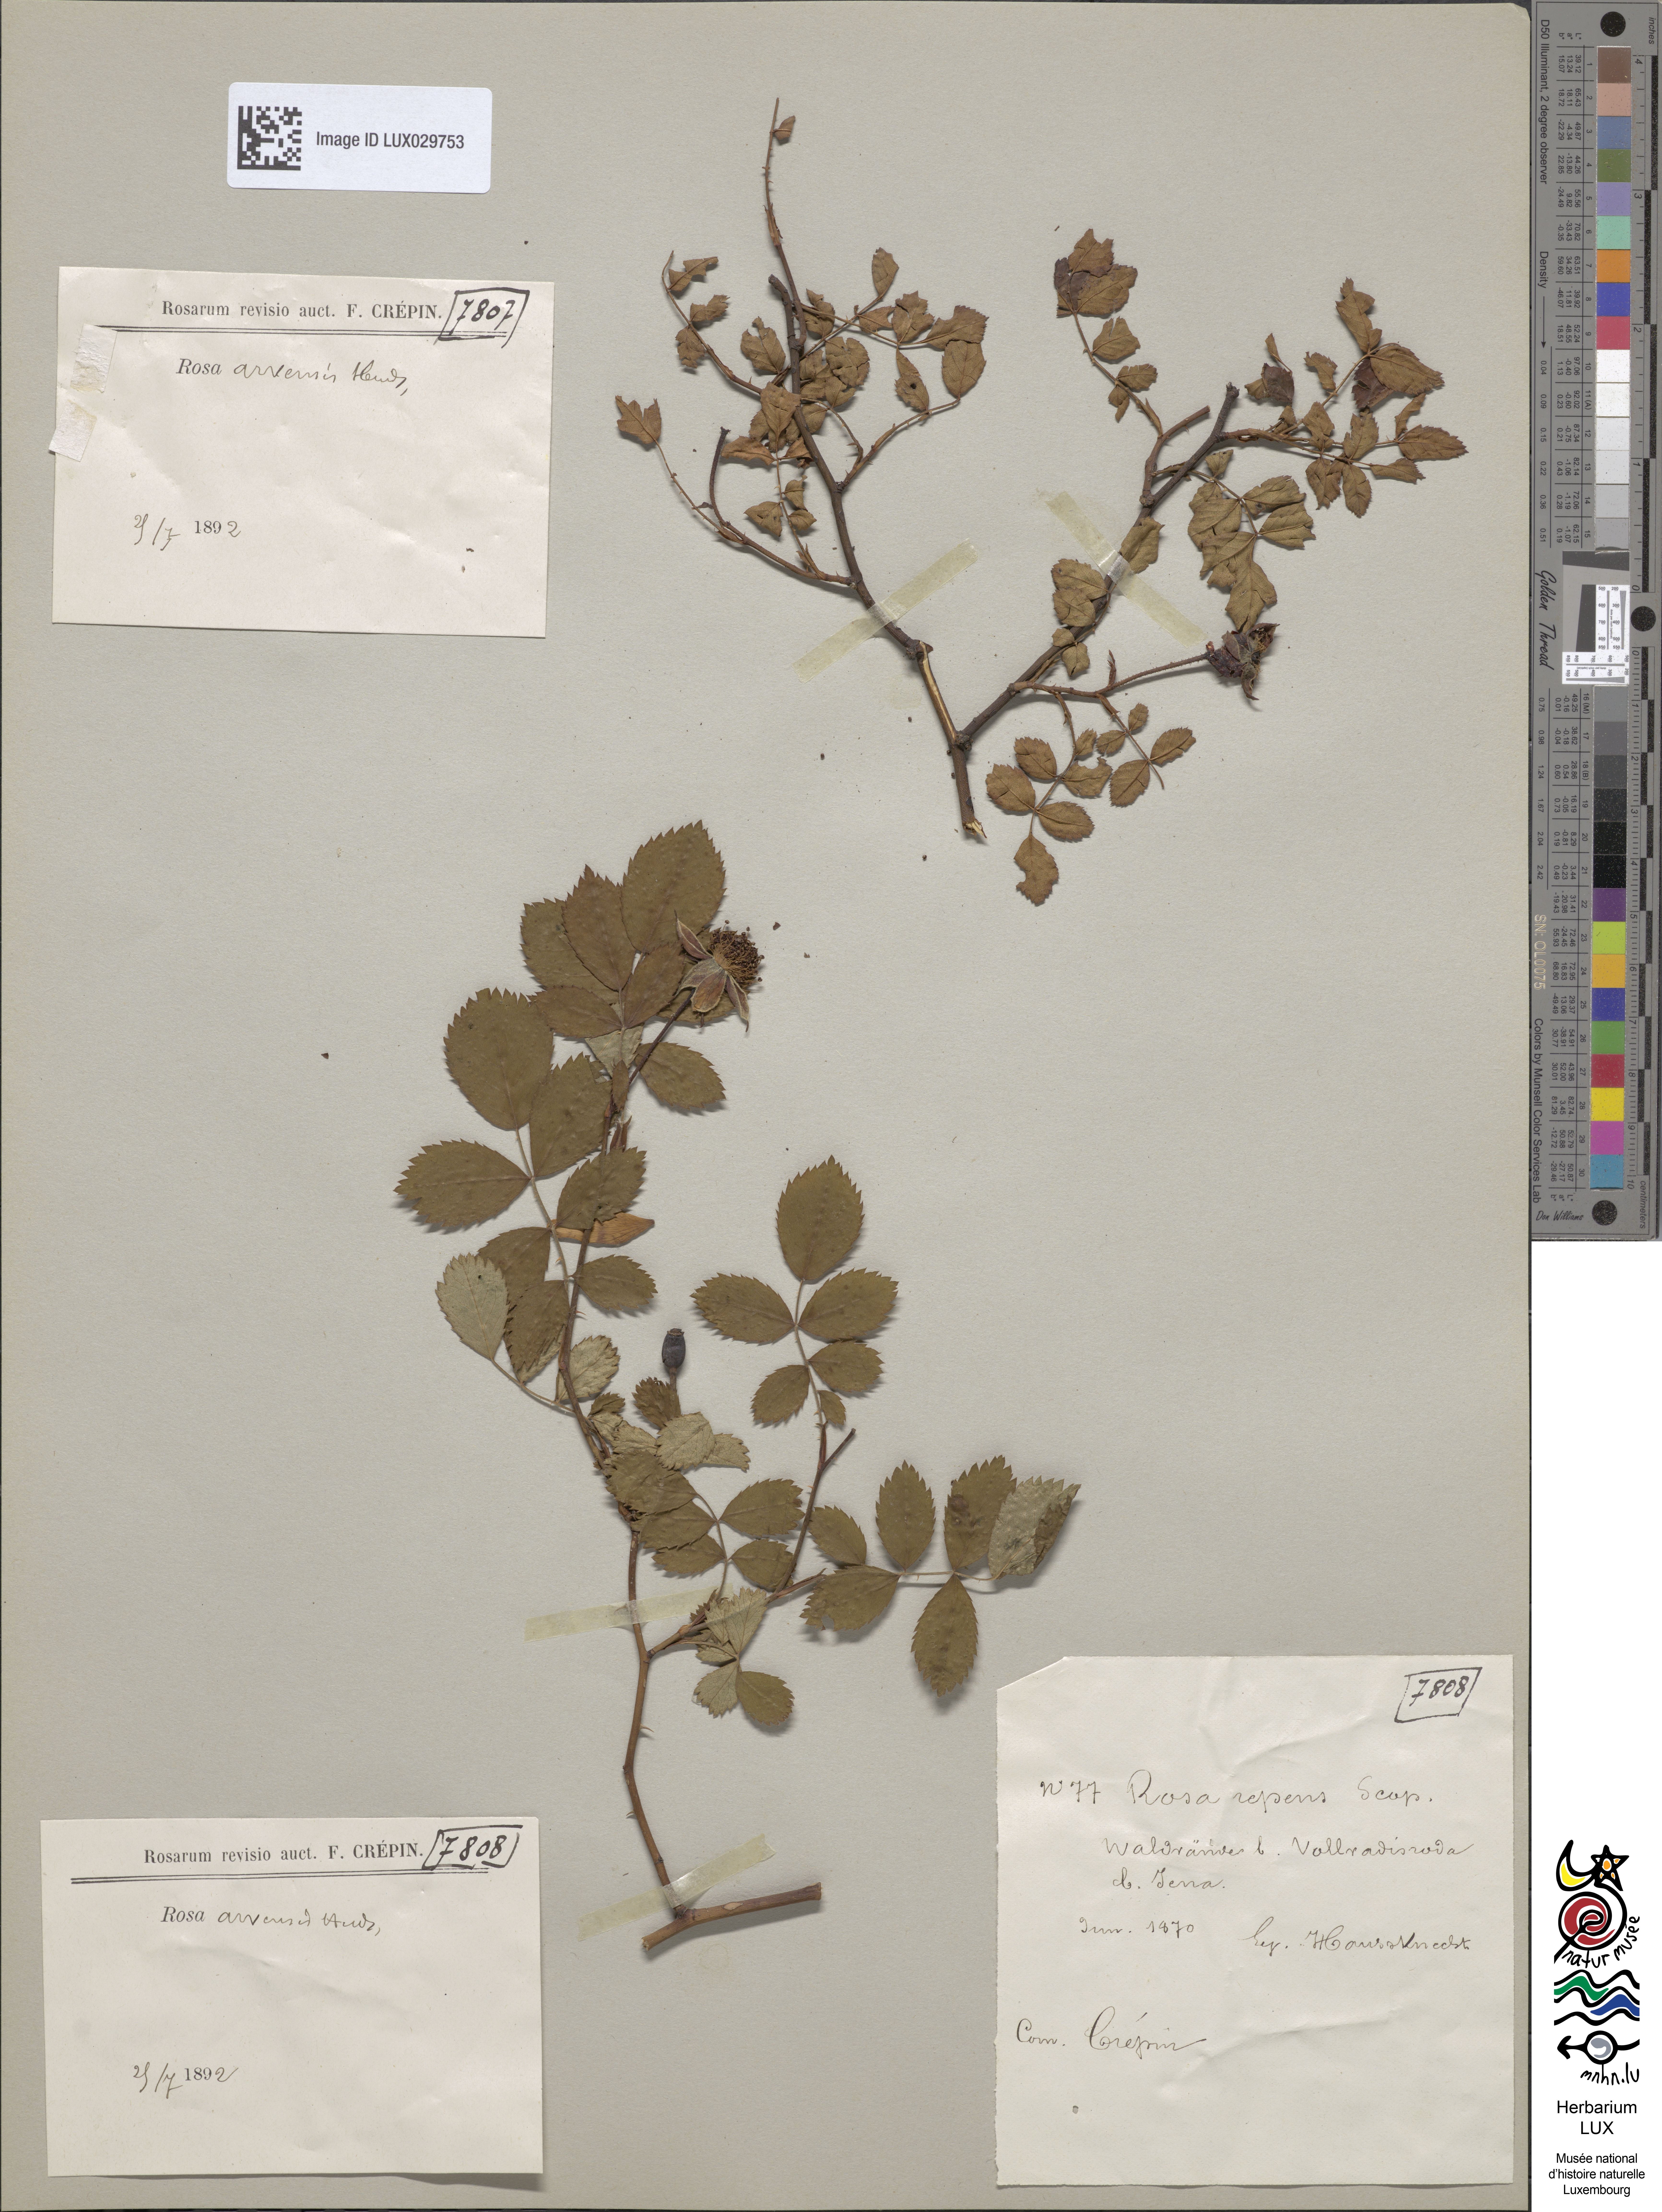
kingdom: Plantae
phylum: Tracheophyta
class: Magnoliopsida
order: Rosales
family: Rosaceae
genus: Rosa
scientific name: Rosa arvensis
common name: Field rose
